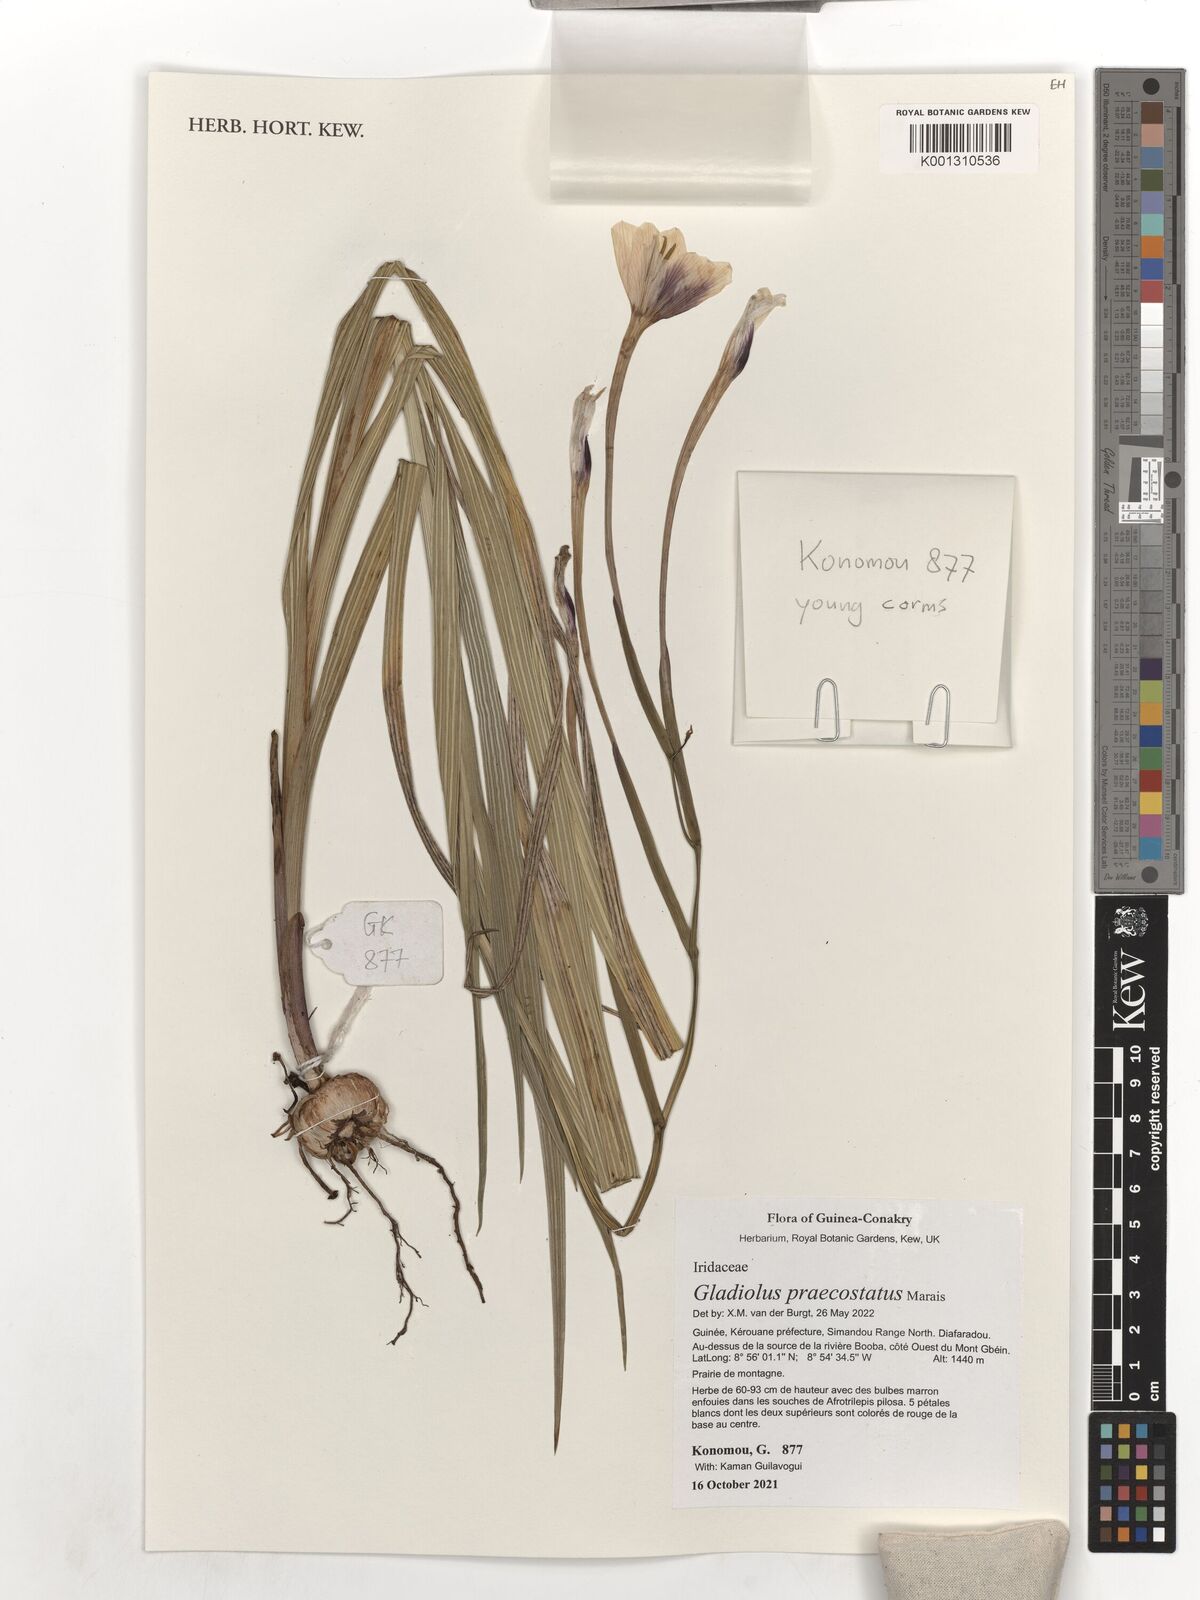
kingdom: Plantae
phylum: Tracheophyta
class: Liliopsida
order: Asparagales
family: Iridaceae
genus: Gladiolus
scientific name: Gladiolus praecostatus
